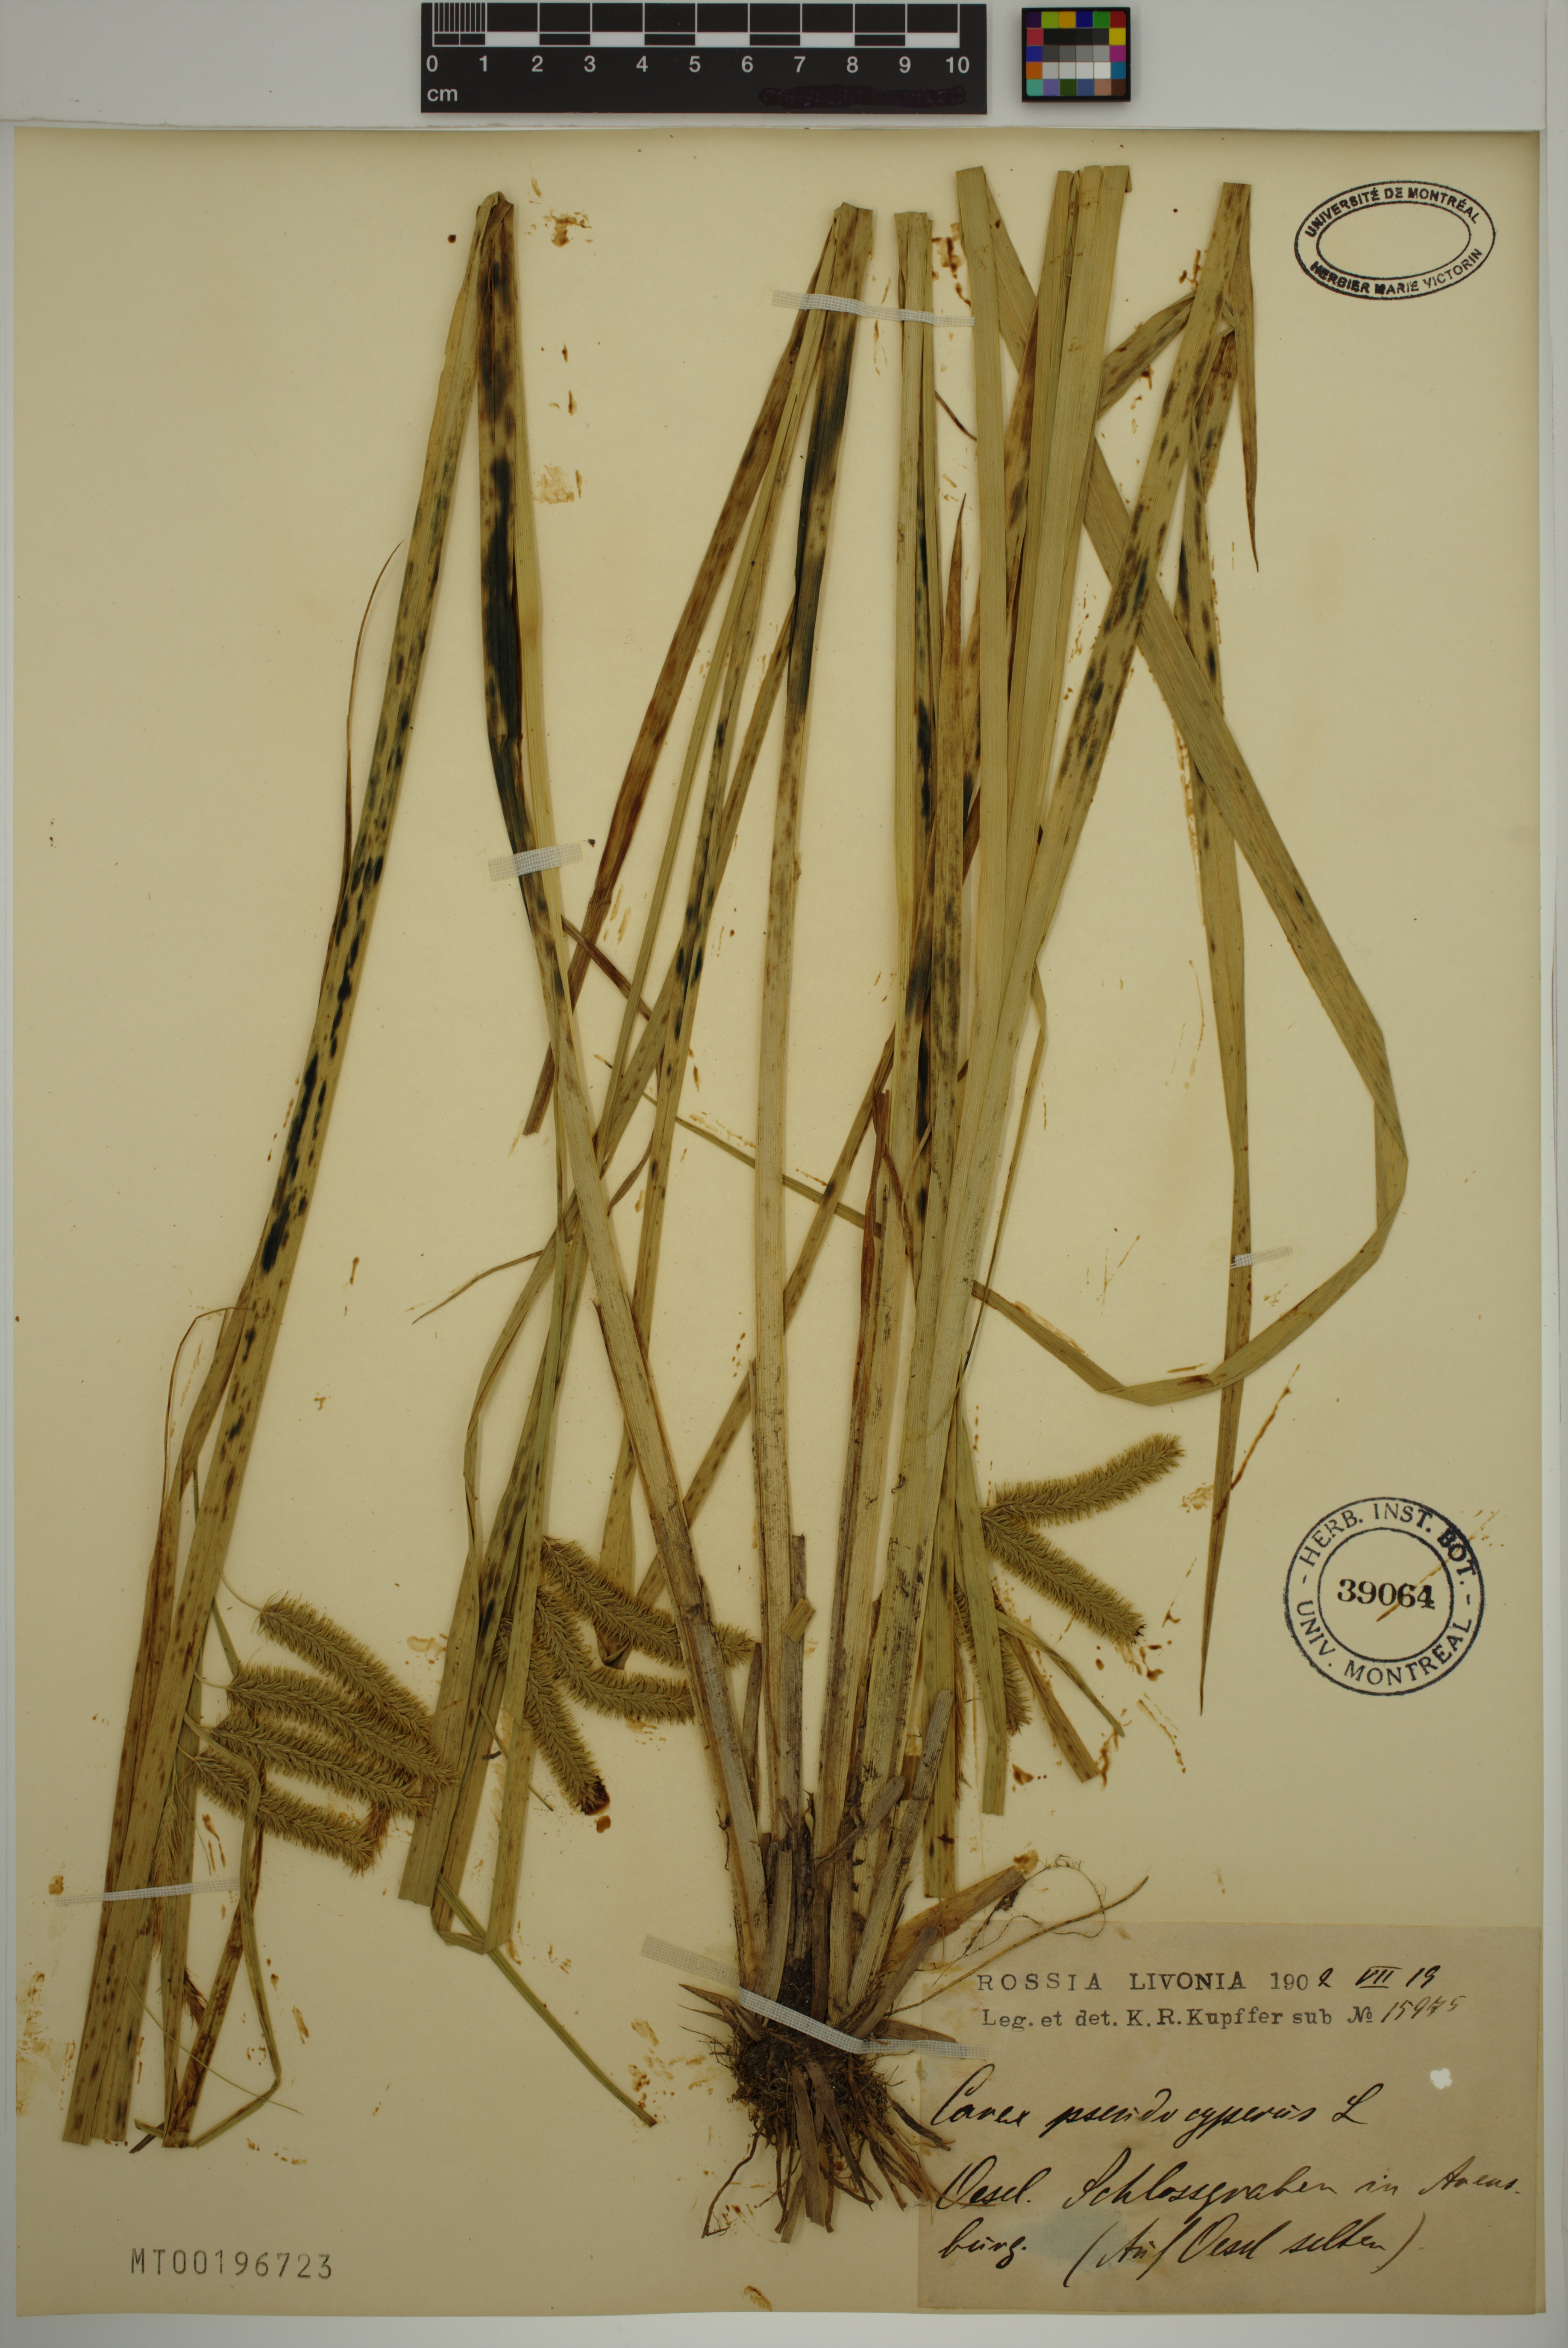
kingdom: Plantae
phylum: Tracheophyta
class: Liliopsida
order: Poales
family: Cyperaceae
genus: Carex
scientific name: Carex pseudocyperus
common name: Cyperus sedge
